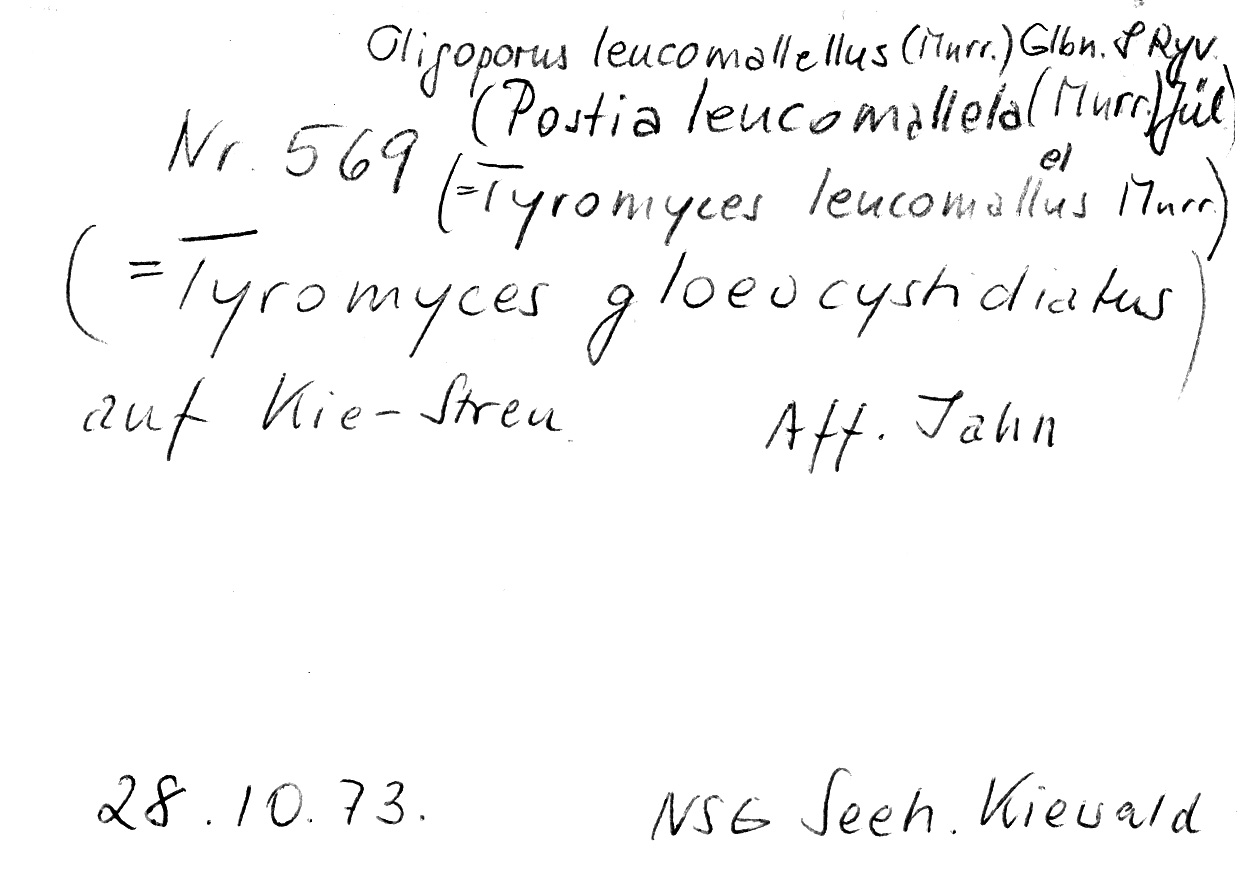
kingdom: Plantae
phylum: Tracheophyta
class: Pinopsida
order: Pinales
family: Pinaceae
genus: Pinus
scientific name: Pinus
